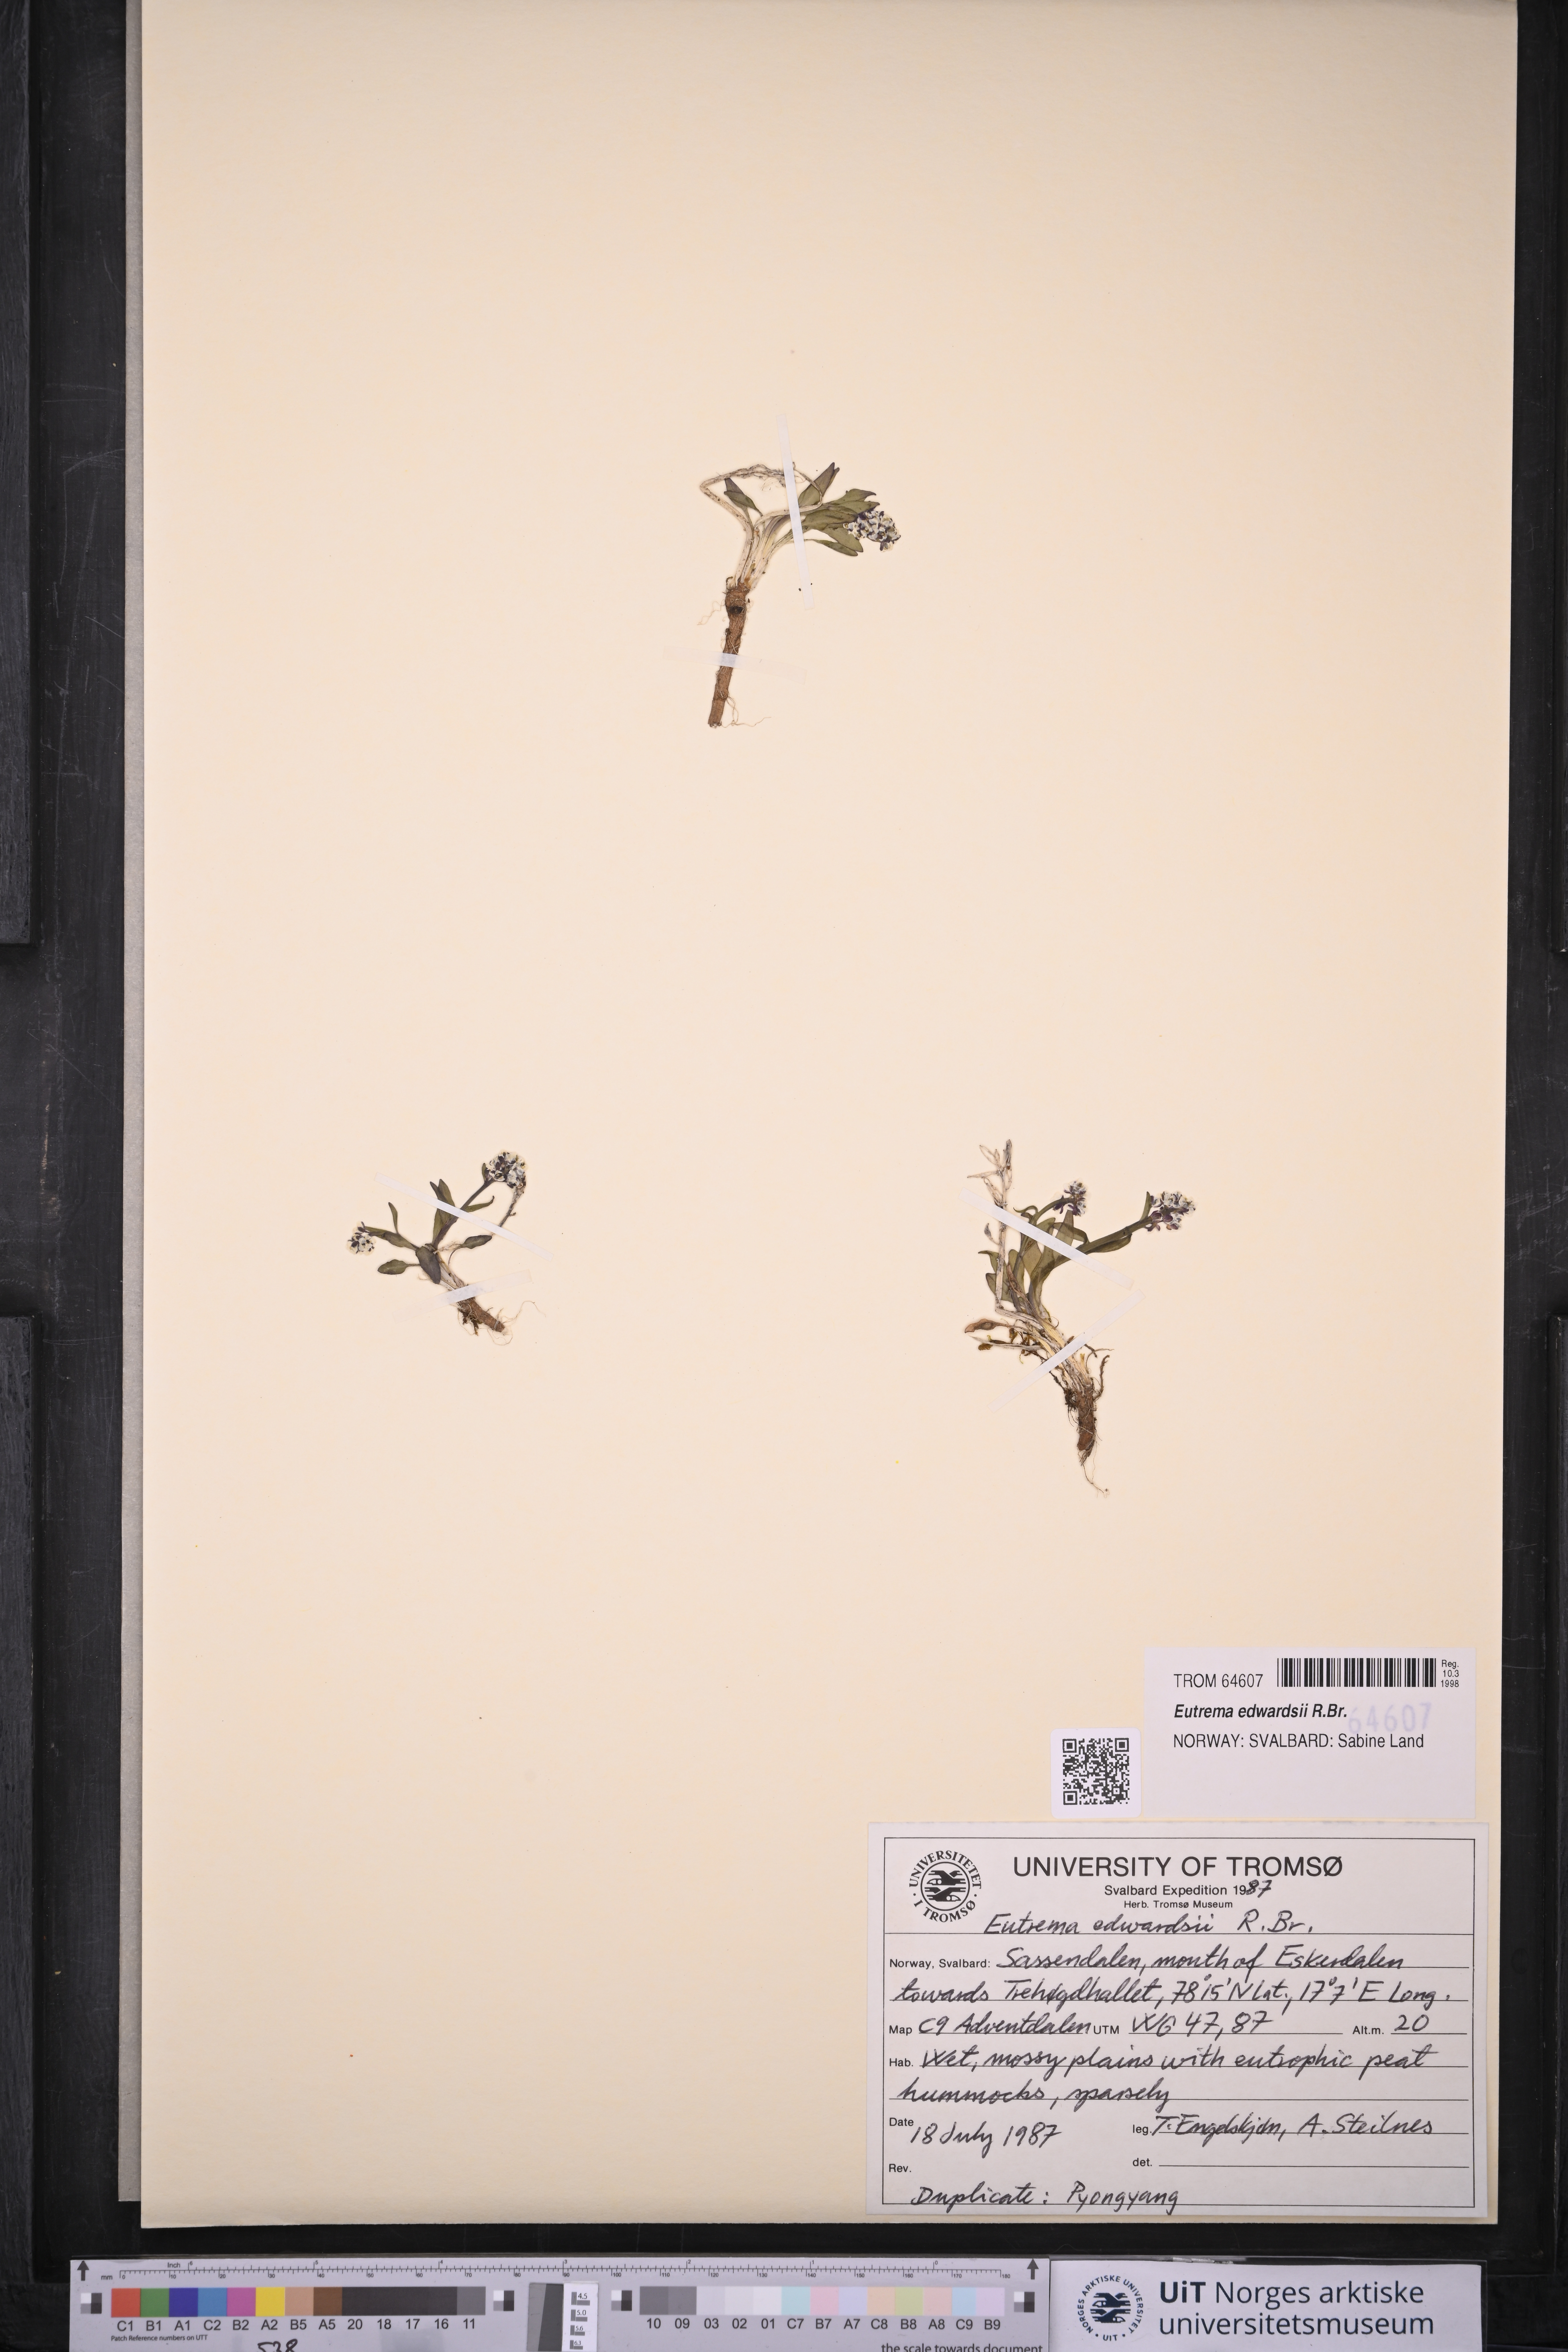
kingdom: Plantae
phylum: Tracheophyta
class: Magnoliopsida
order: Brassicales
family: Brassicaceae
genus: Eutrema
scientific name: Eutrema edwardsii
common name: Penland alpine fen mustard
